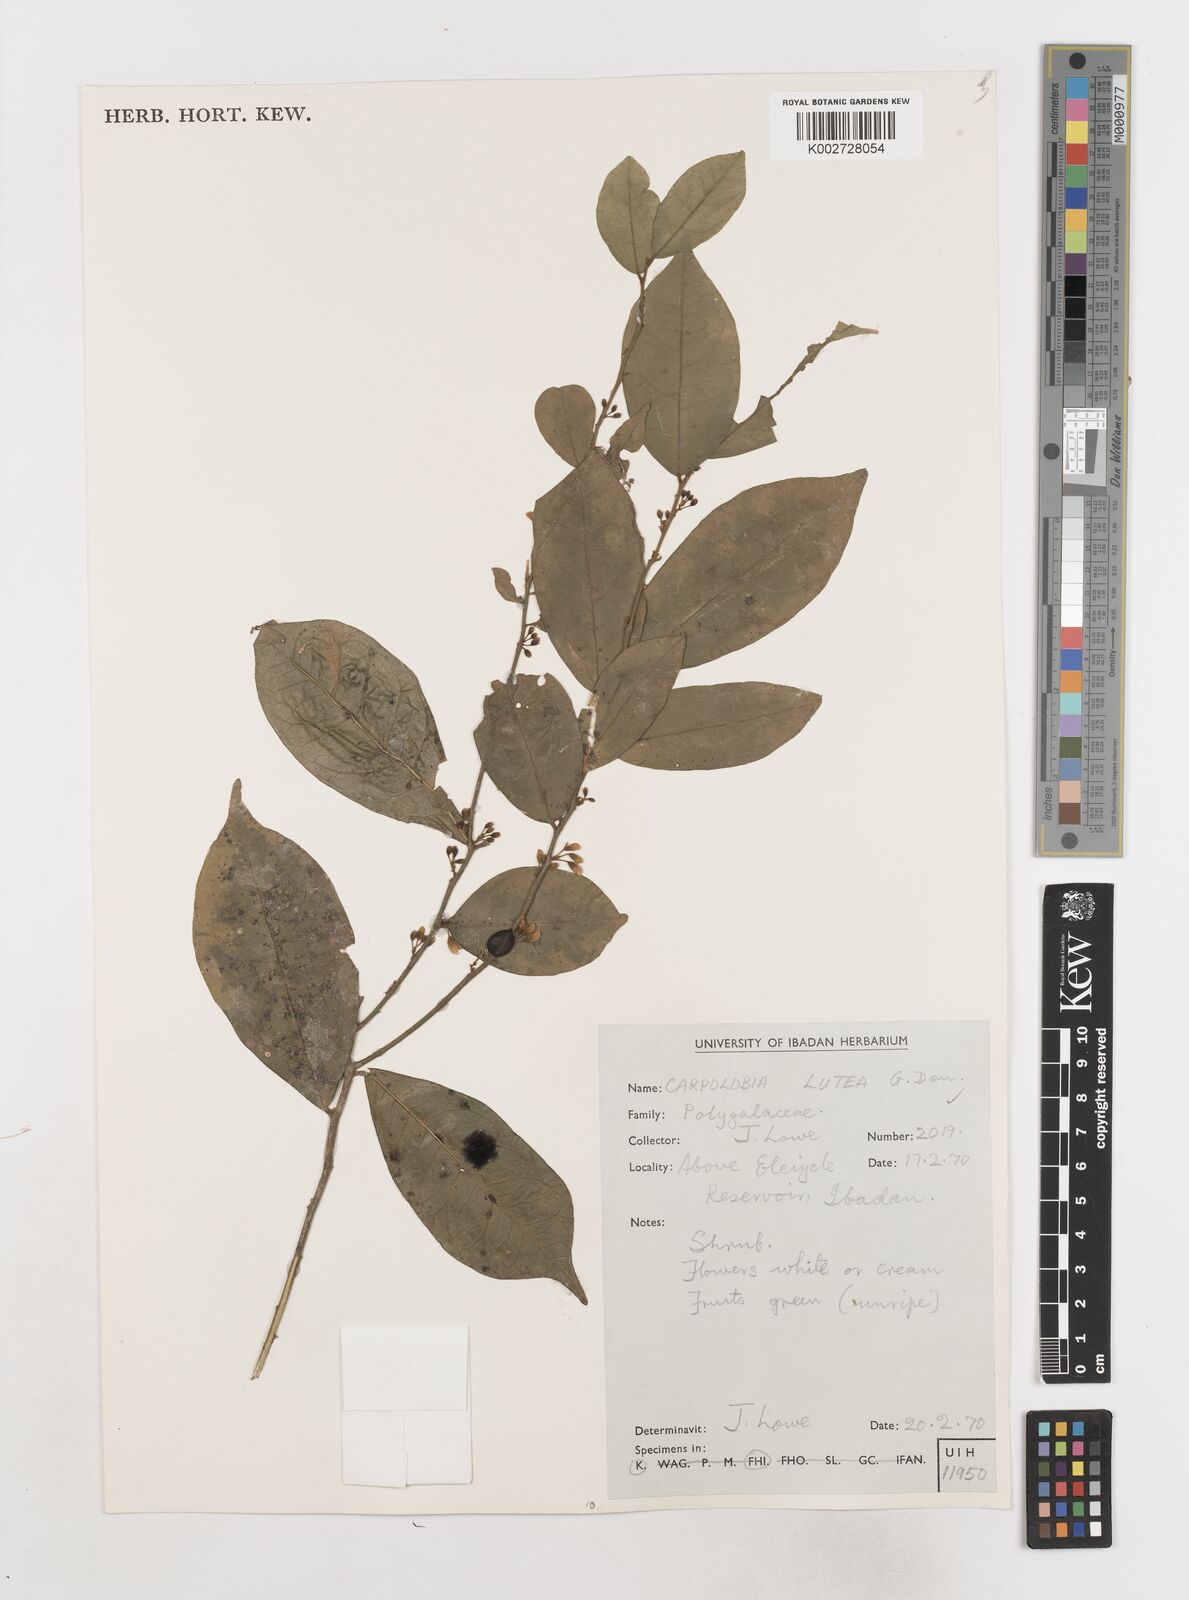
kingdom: Plantae
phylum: Tracheophyta
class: Magnoliopsida
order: Fabales
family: Polygalaceae
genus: Carpolobia
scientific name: Carpolobia lutea
